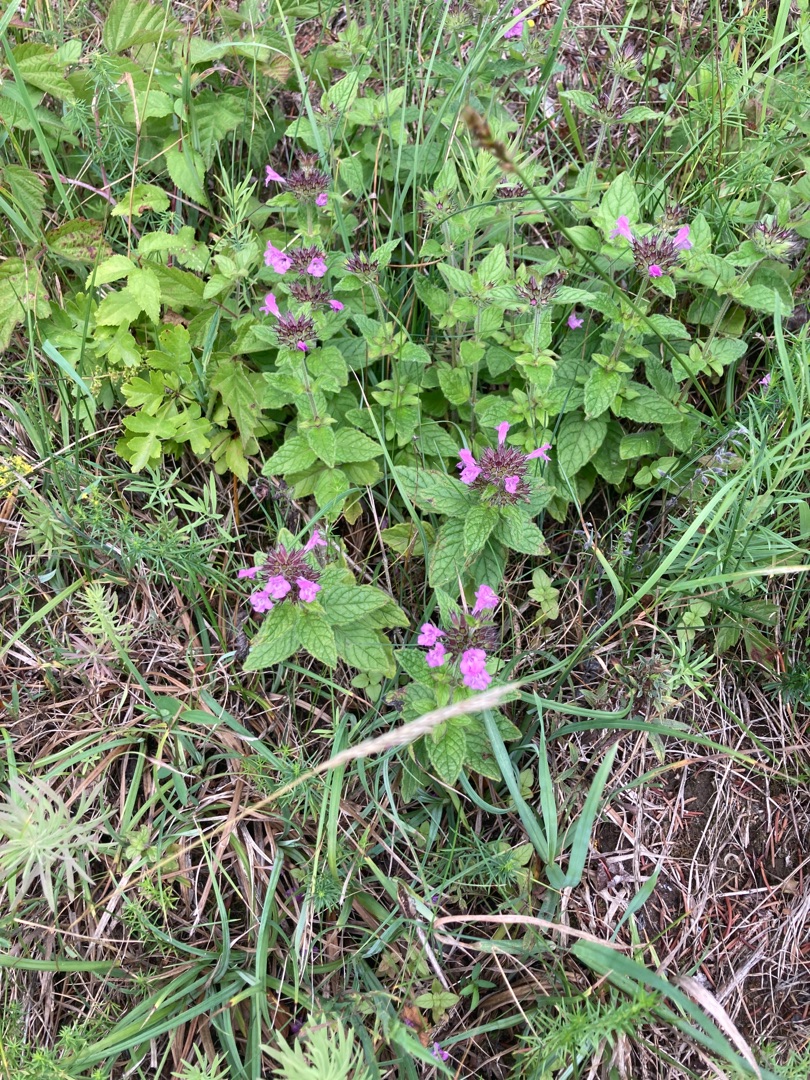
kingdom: Plantae
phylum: Tracheophyta
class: Magnoliopsida
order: Lamiales
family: Lamiaceae
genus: Clinopodium
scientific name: Clinopodium vulgare
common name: Kransbørste
